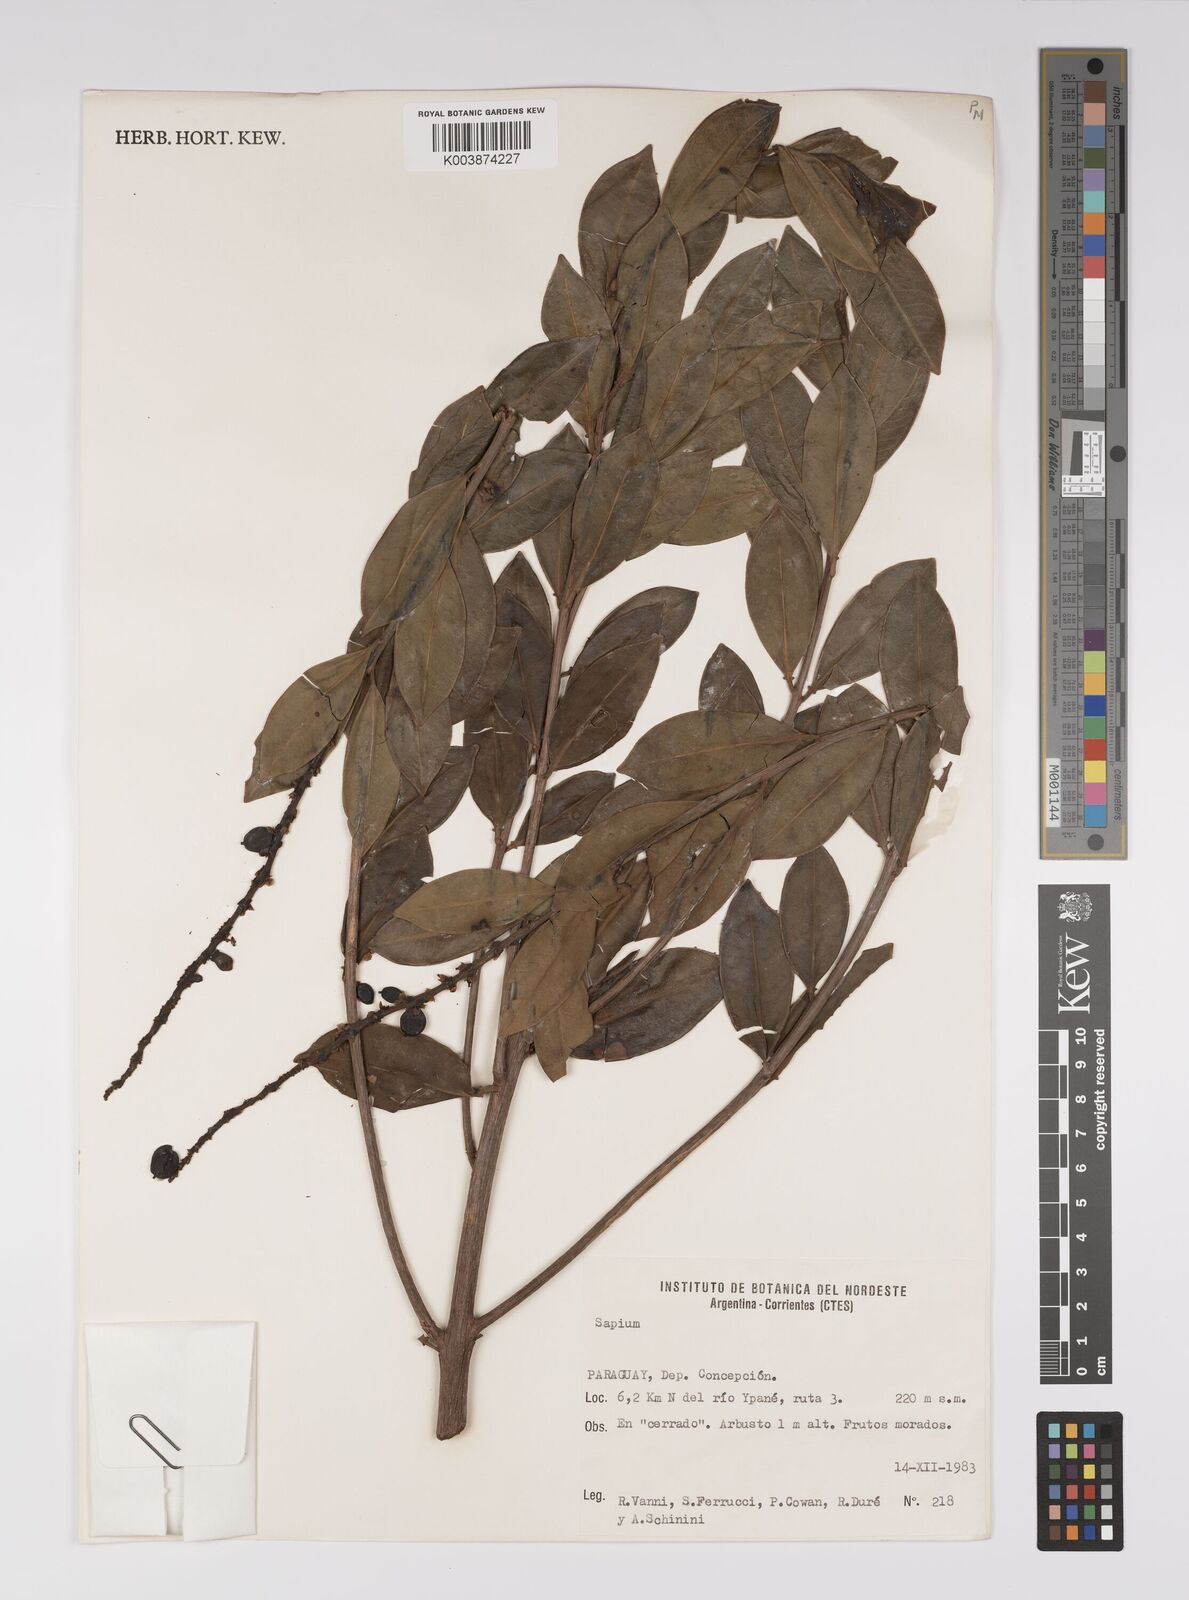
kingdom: Plantae
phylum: Tracheophyta
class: Magnoliopsida
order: Malpighiales
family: Euphorbiaceae
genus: Sapium
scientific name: Sapium
